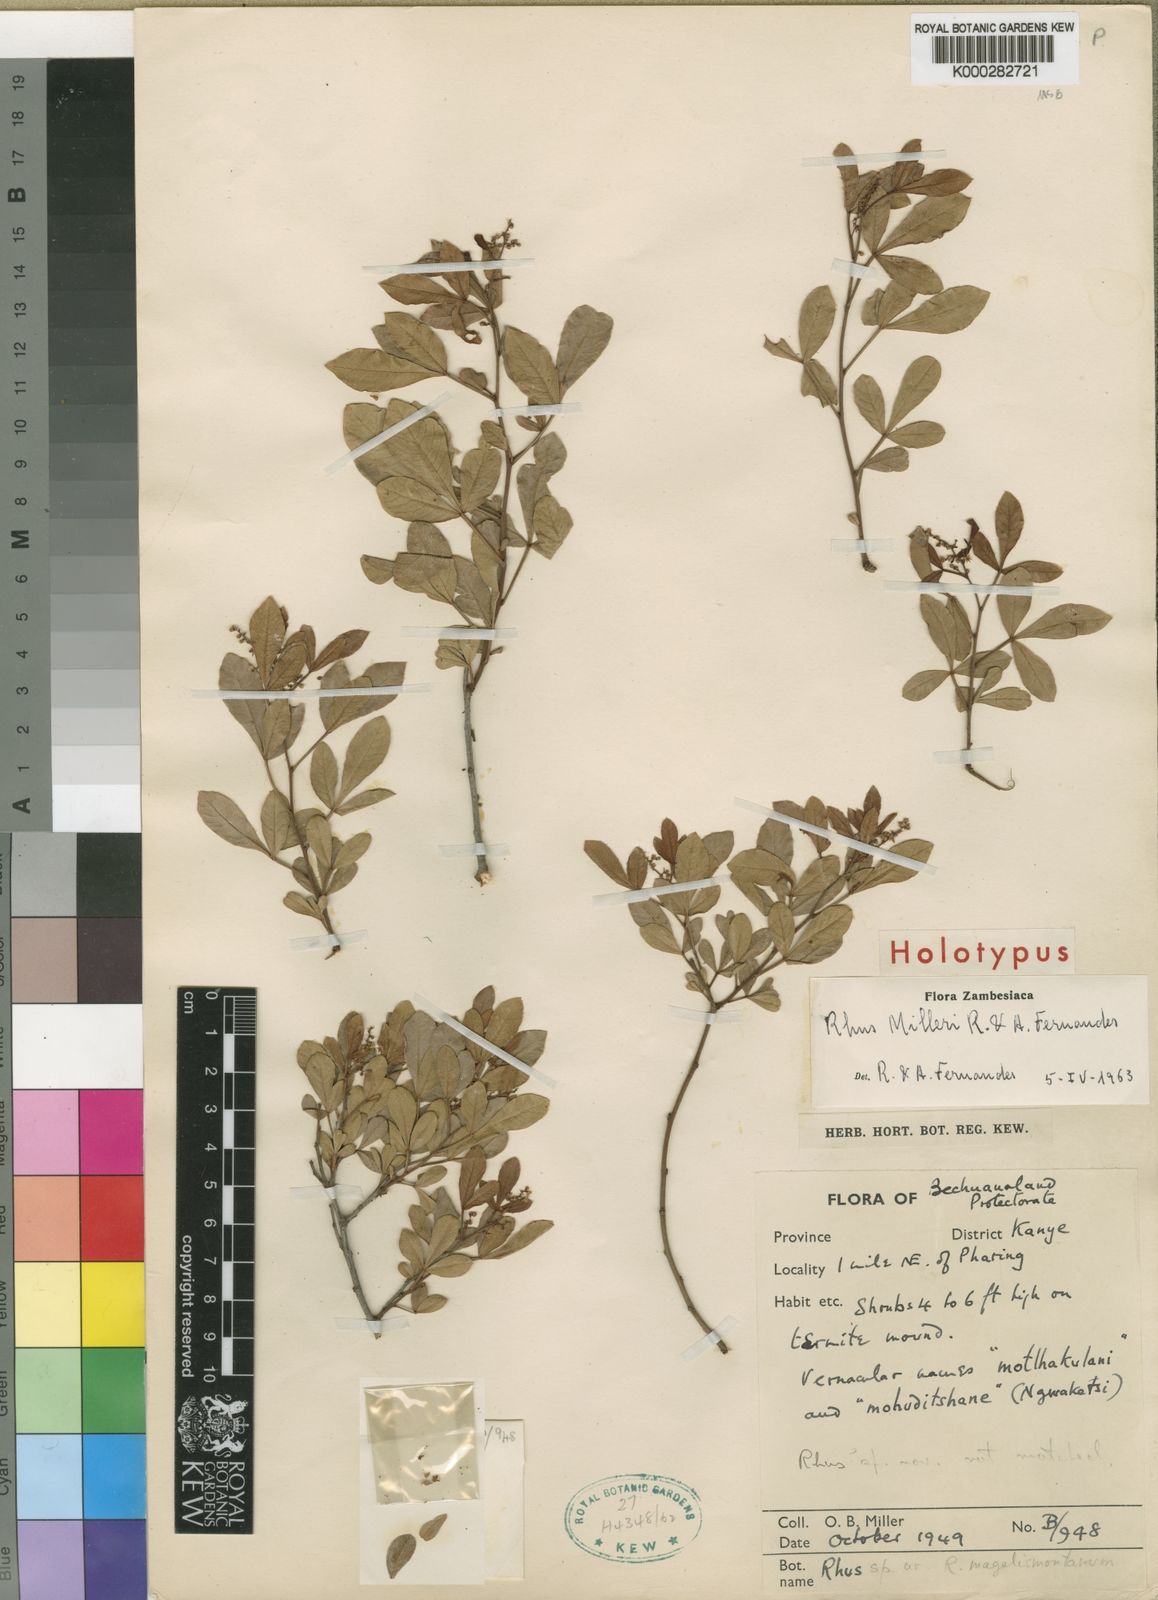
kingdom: Plantae
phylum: Tracheophyta
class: Magnoliopsida
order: Sapindales
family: Anacardiaceae
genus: Searsia
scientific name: Searsia magalismontana
